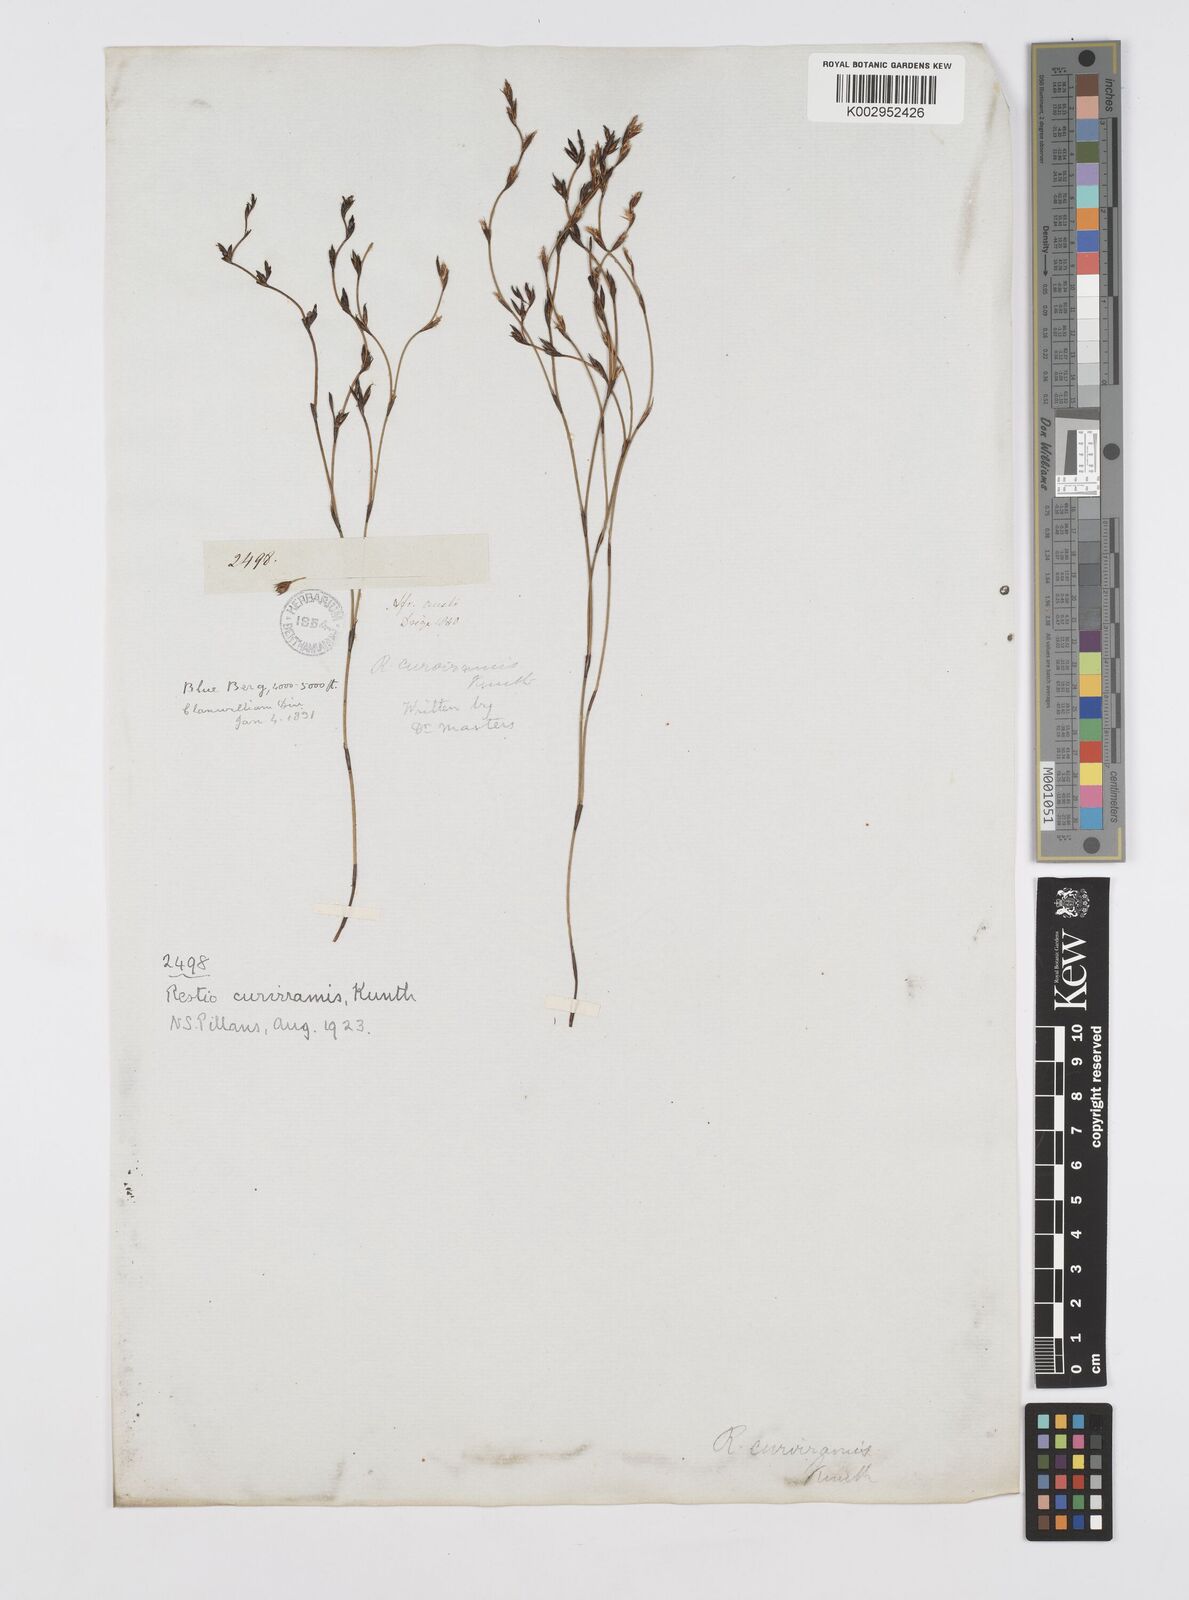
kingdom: Plantae
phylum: Tracheophyta
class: Liliopsida
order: Poales
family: Restionaceae
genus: Restio
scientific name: Restio curviramis
